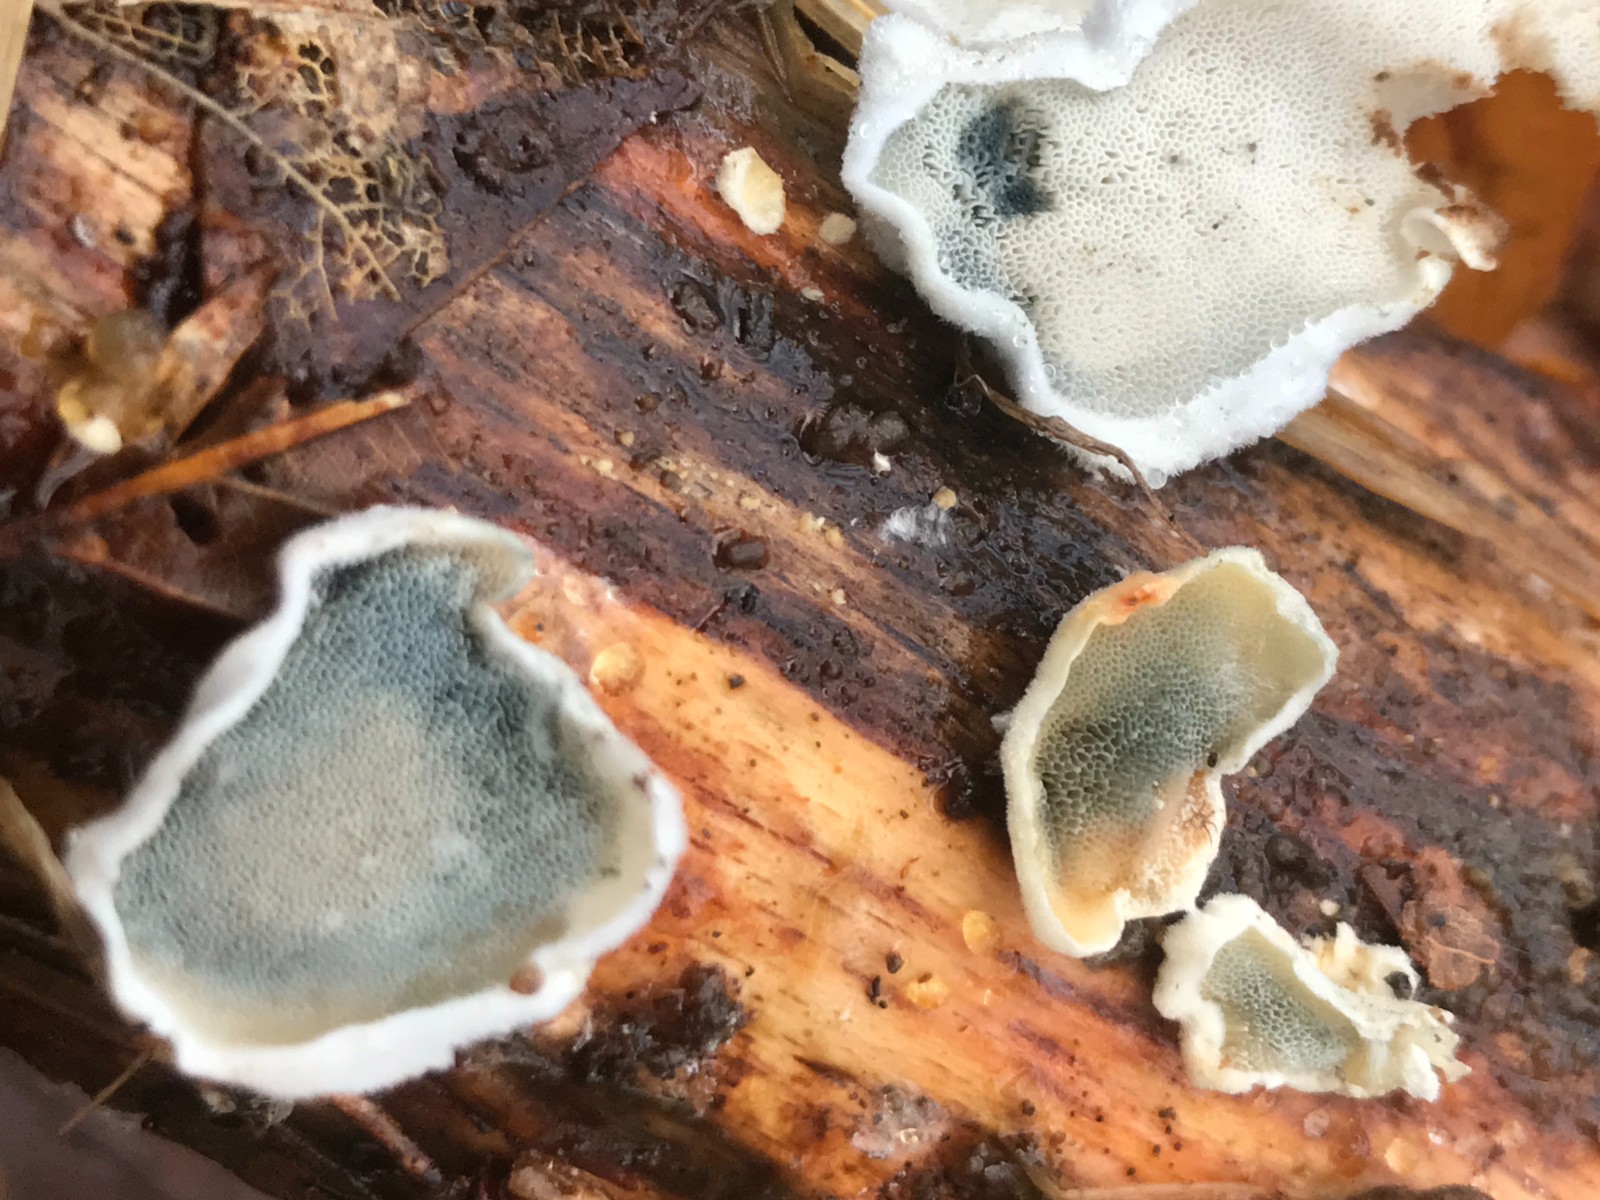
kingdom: Fungi
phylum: Basidiomycota
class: Agaricomycetes
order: Polyporales
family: Incrustoporiaceae
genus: Skeletocutis
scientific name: Skeletocutis nemoralis
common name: stor krystalporesvamp
